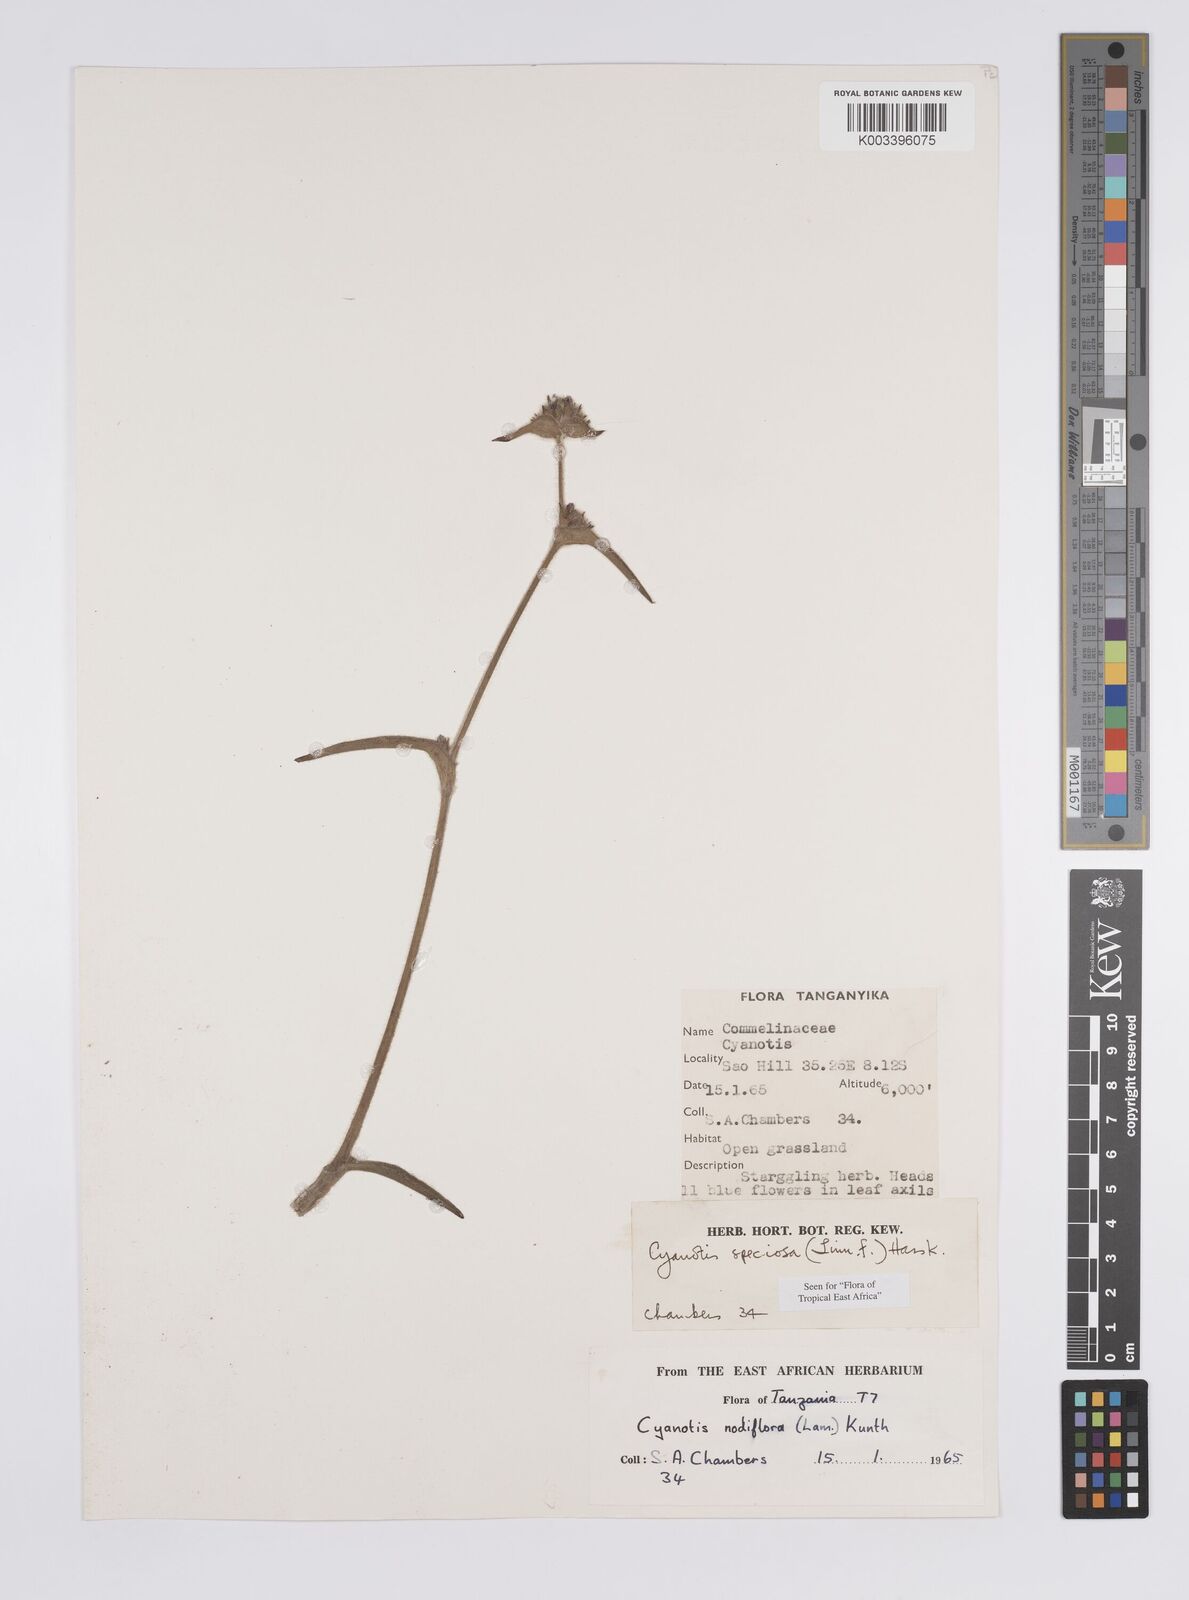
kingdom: Plantae
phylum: Tracheophyta
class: Liliopsida
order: Commelinales
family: Commelinaceae
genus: Cyanotis
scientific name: Cyanotis speciosa
